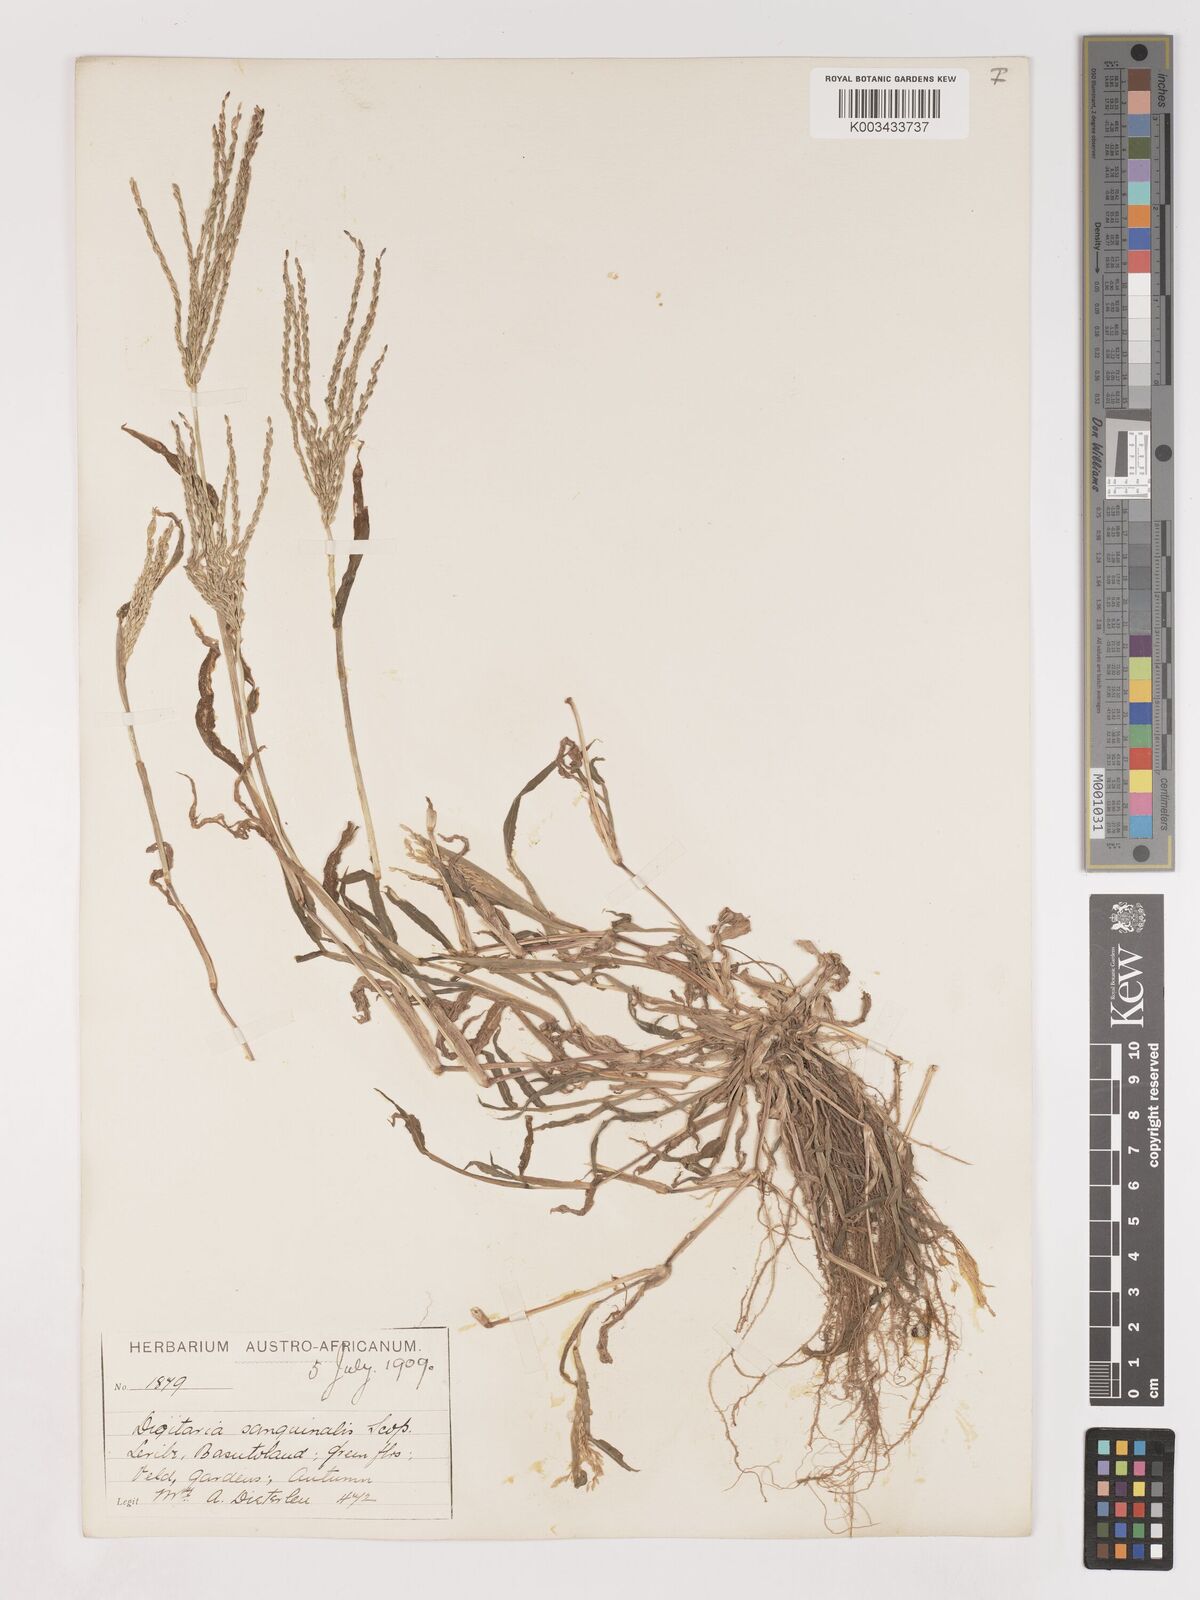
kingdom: Plantae
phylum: Tracheophyta
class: Liliopsida
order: Poales
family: Poaceae
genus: Digitaria
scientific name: Digitaria sanguinalis
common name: Hairy crabgrass
